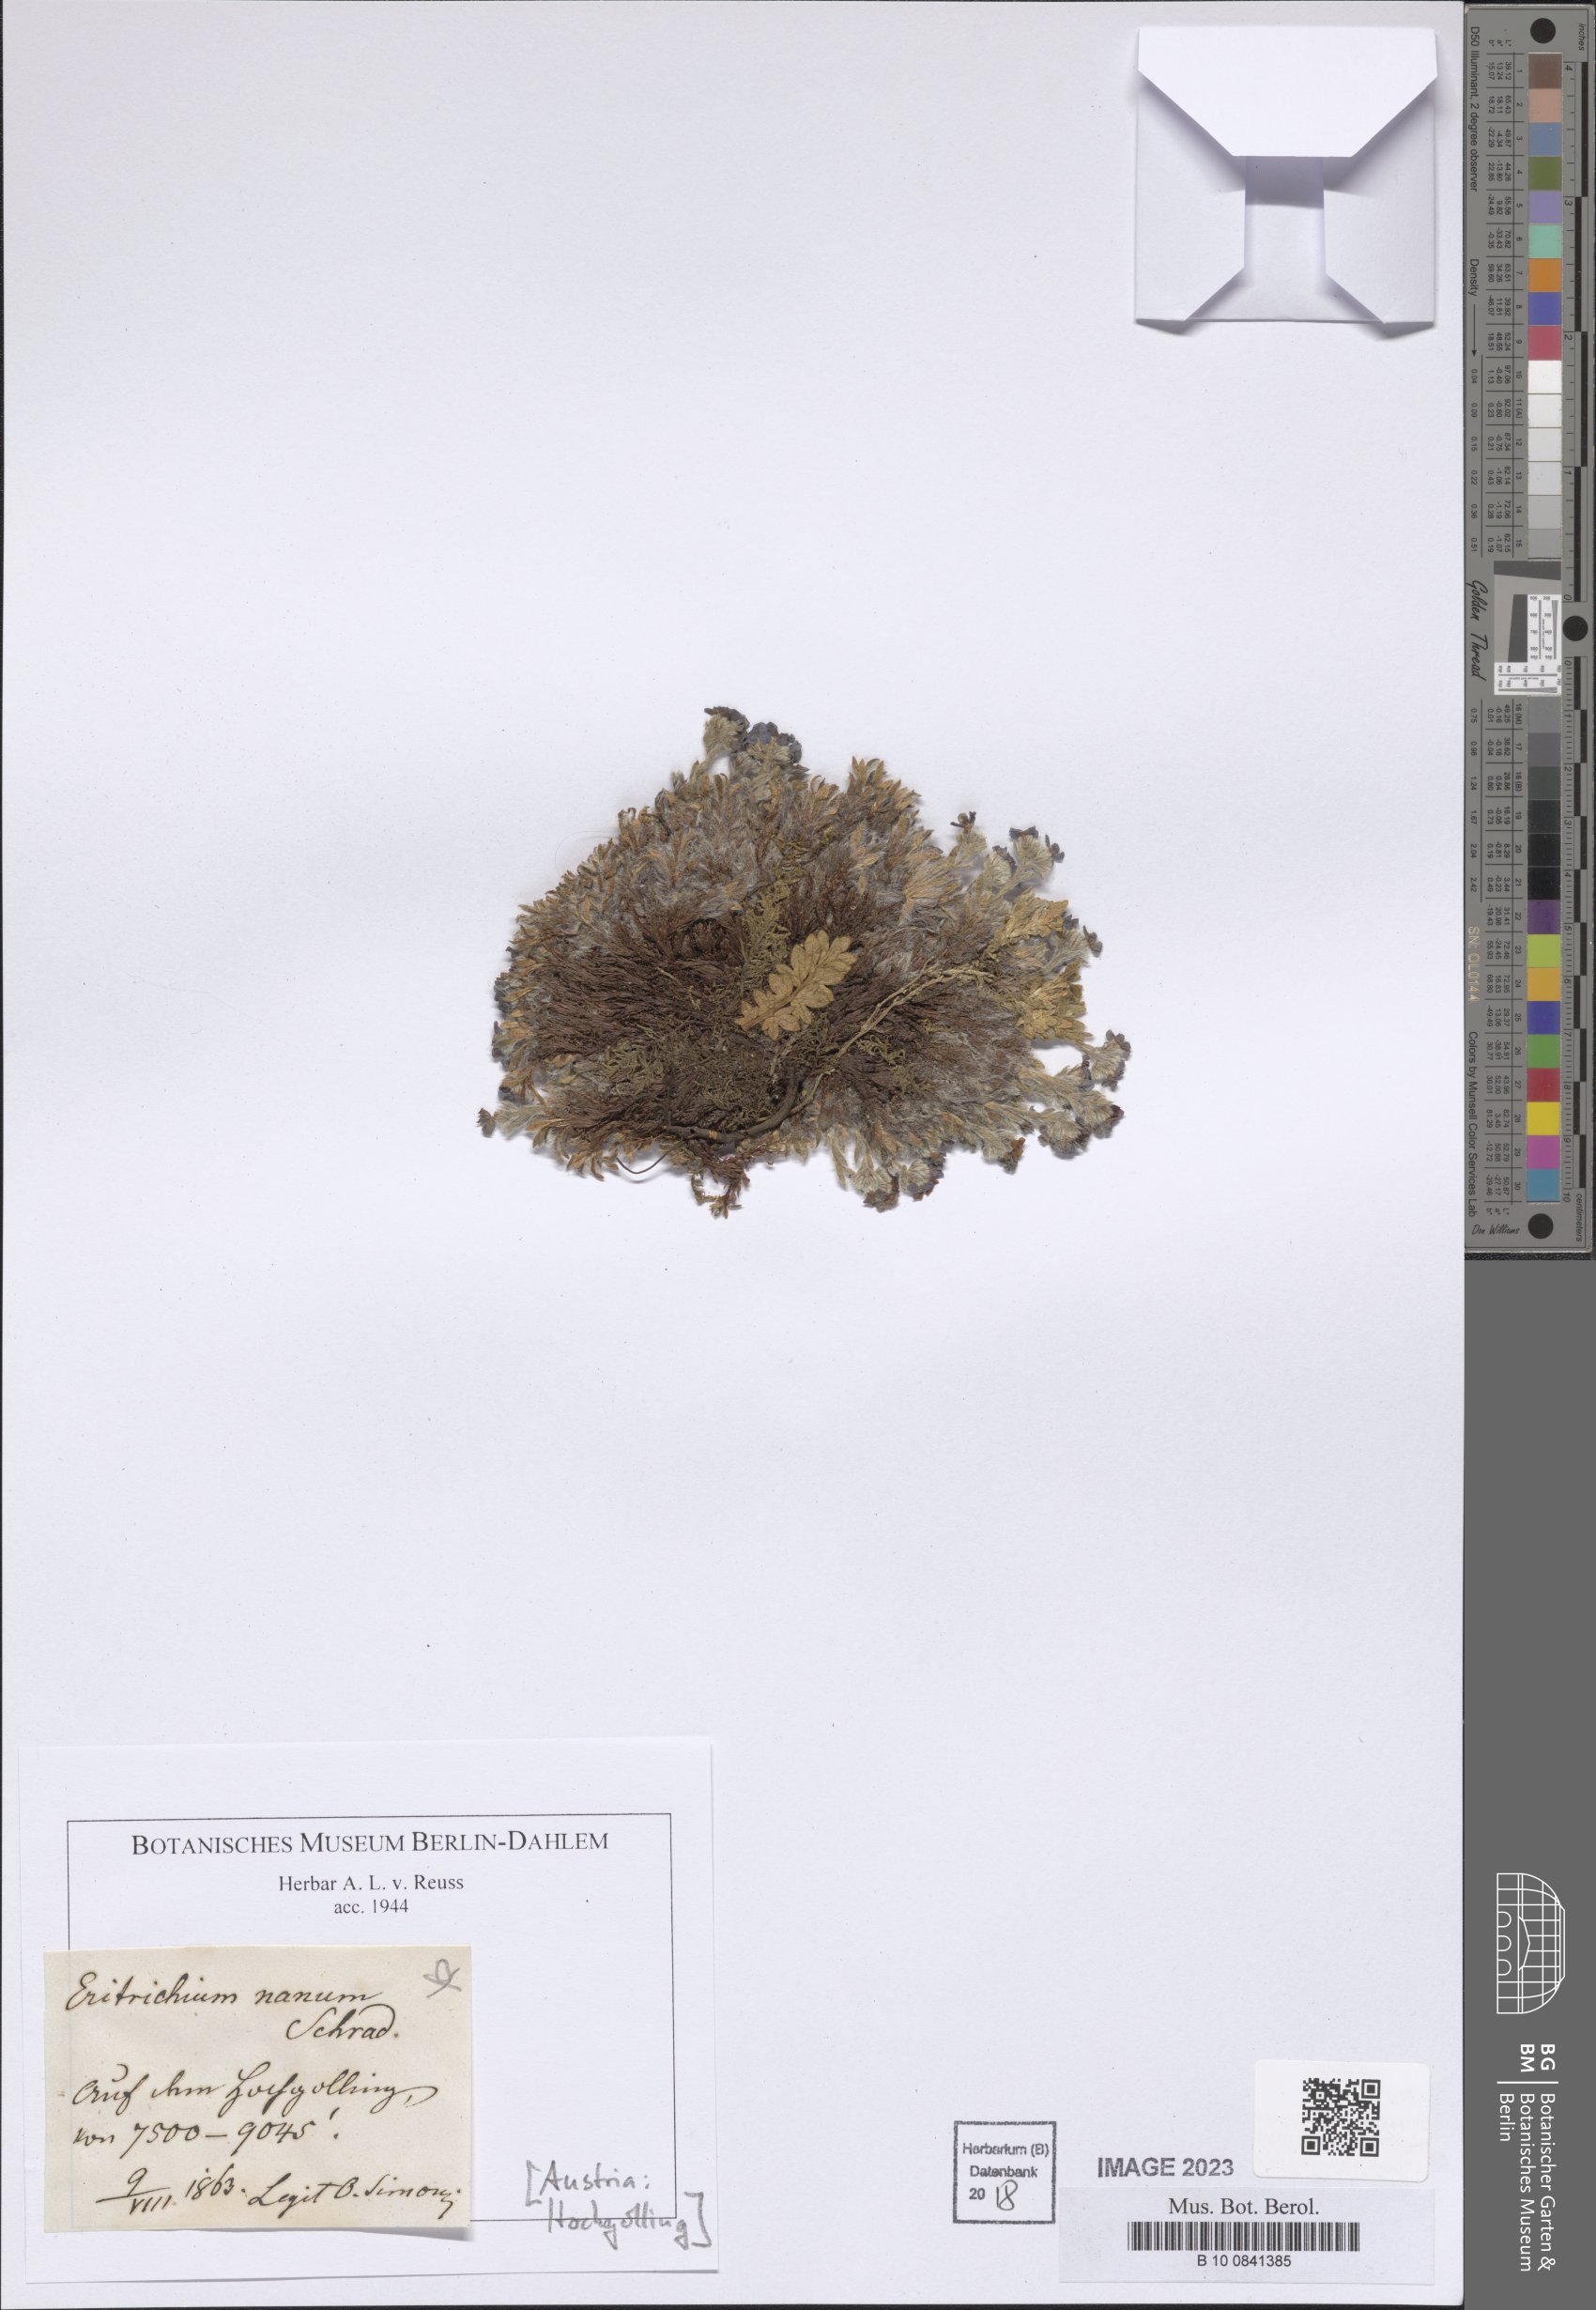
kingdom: Plantae
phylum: Tracheophyta
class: Magnoliopsida
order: Boraginales
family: Boraginaceae
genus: Eritrichium
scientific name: Eritrichium nanum
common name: King-of-the-alps
